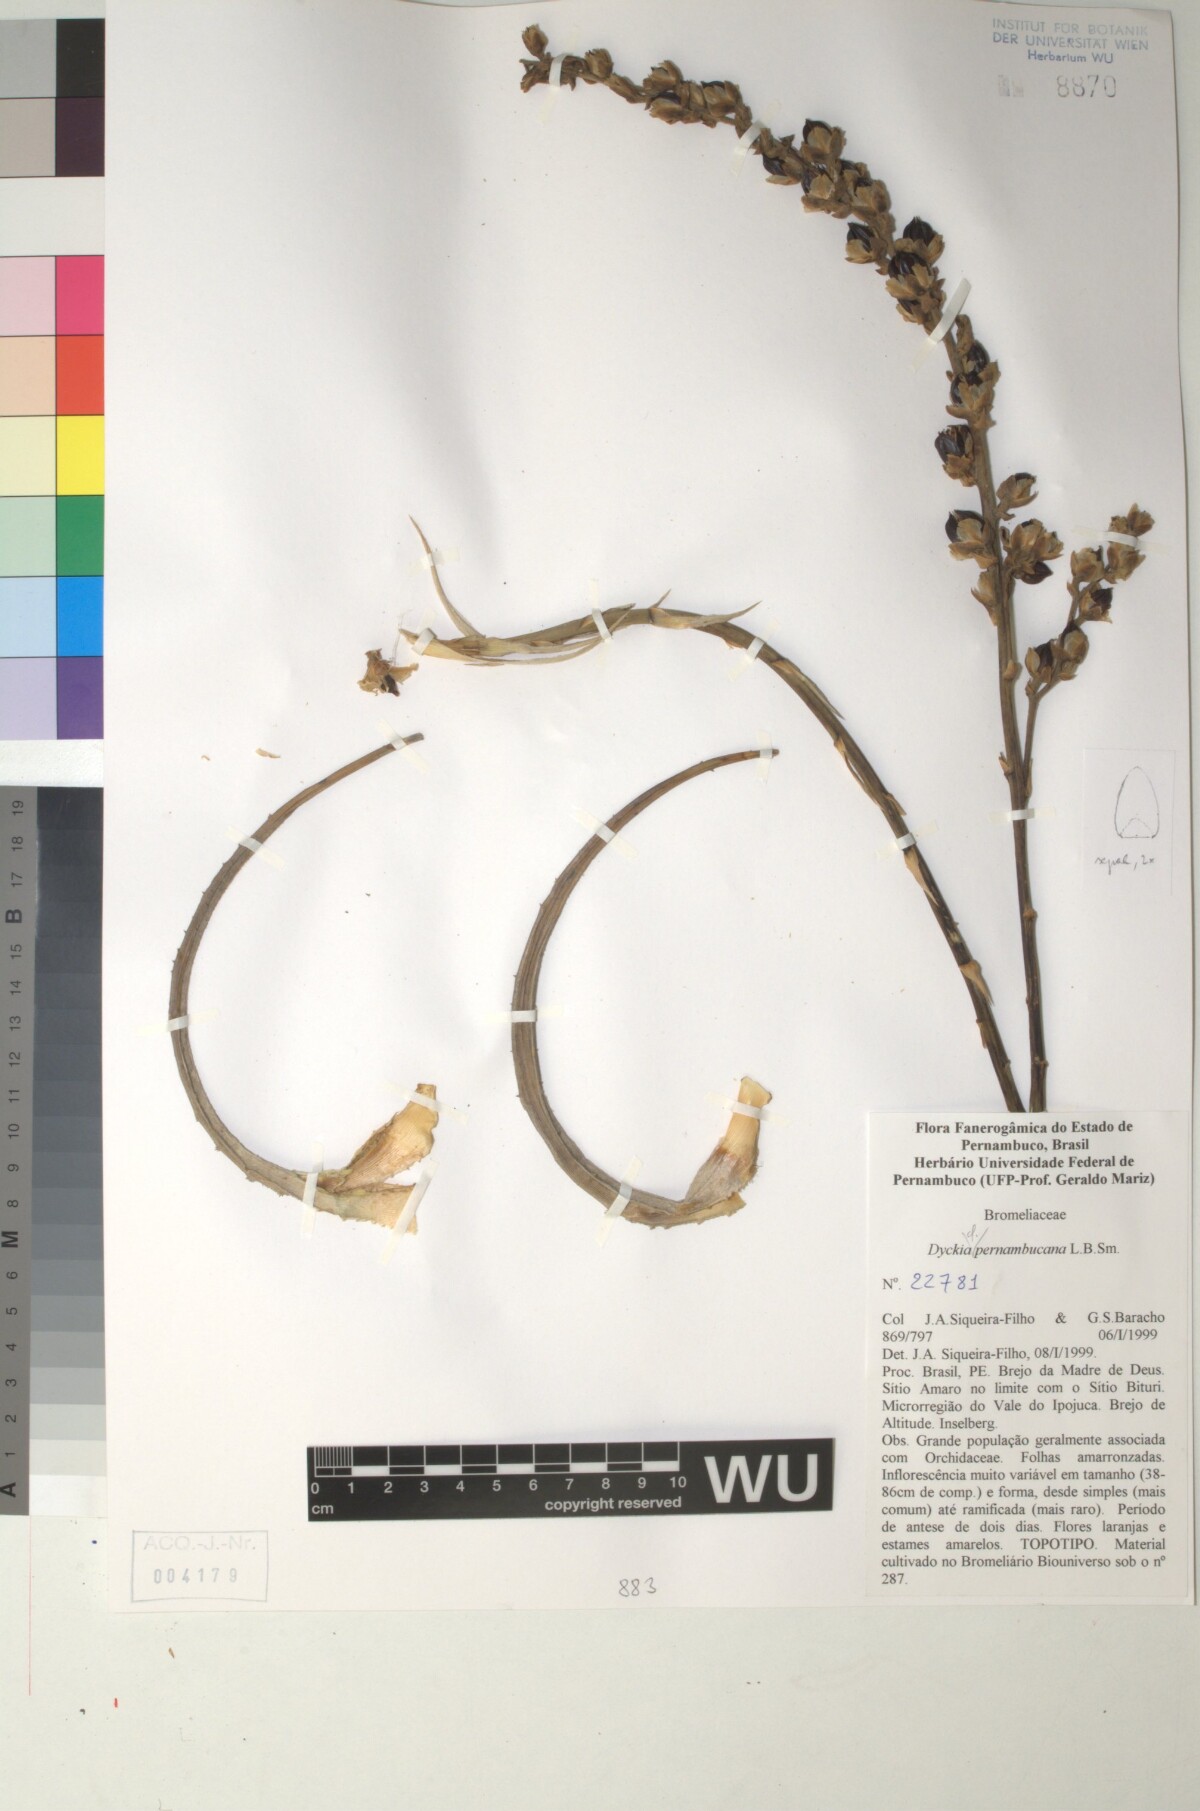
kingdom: Plantae
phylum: Tracheophyta
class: Liliopsida
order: Poales
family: Bromeliaceae
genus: Dyckia
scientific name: Dyckia pernambucana
